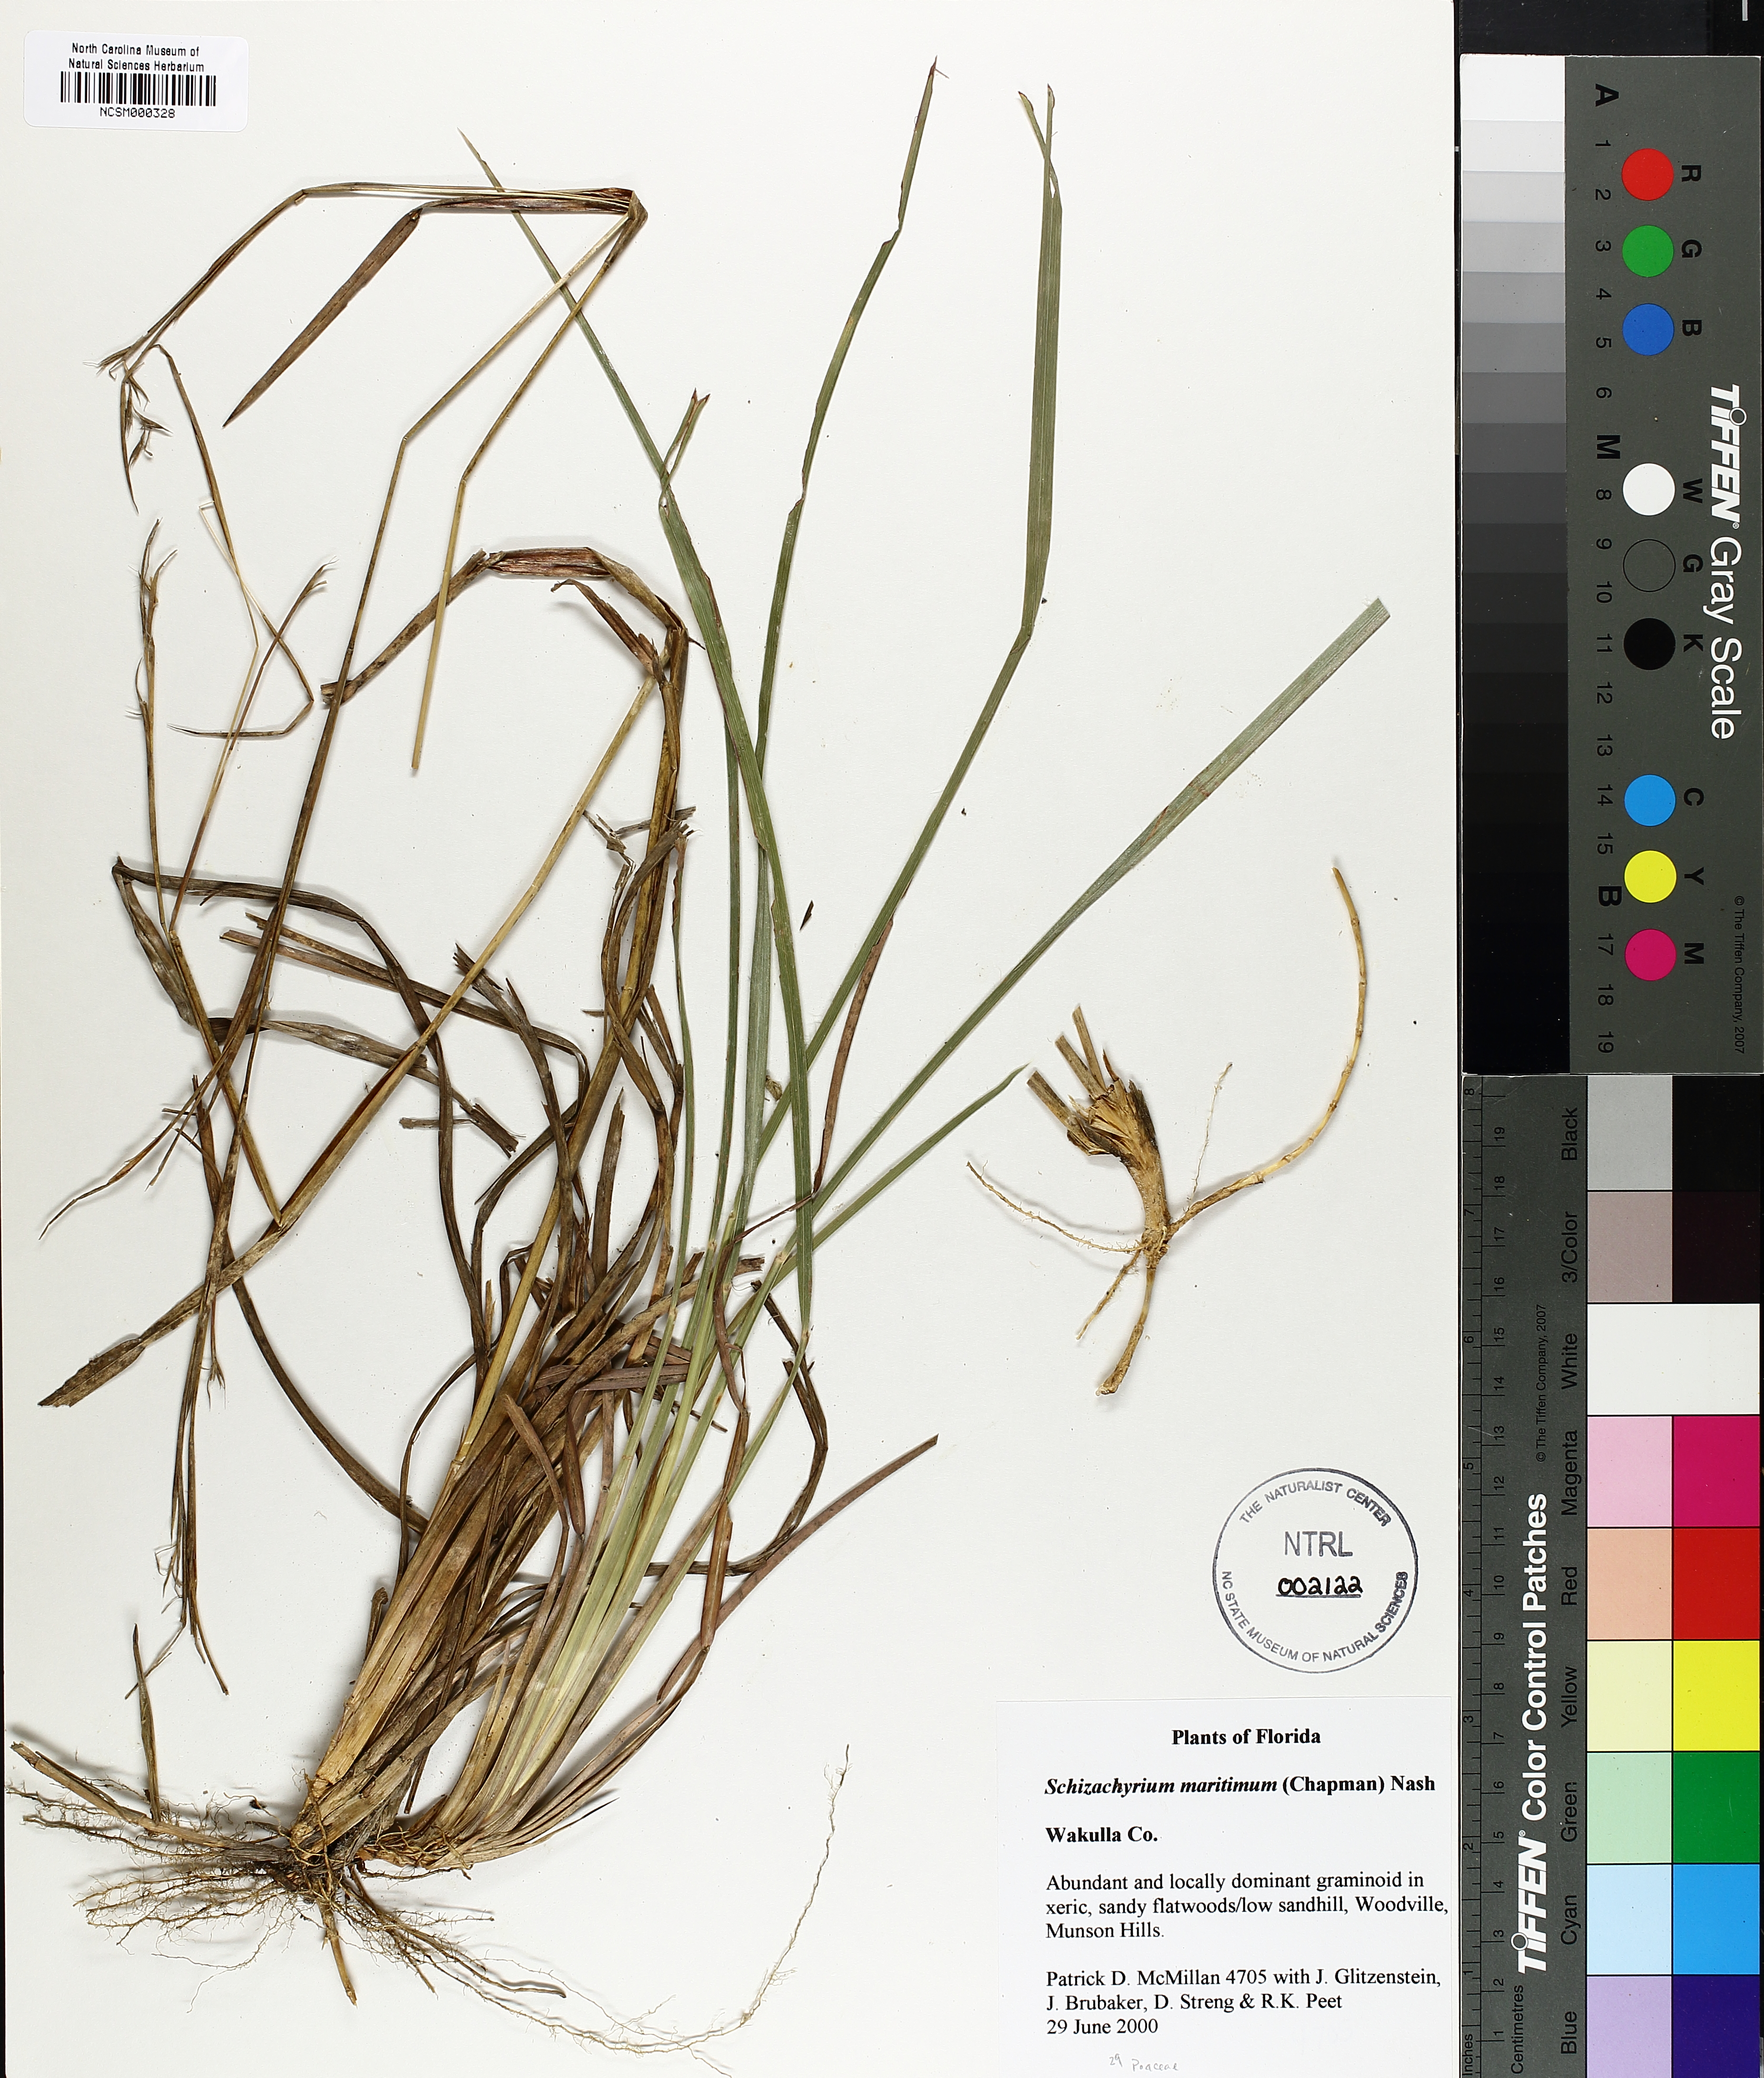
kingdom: Plantae
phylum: Tracheophyta
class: Liliopsida
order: Poales
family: Poaceae
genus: Schizachyrium
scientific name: Schizachyrium maritimum
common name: Gulf bluestem
